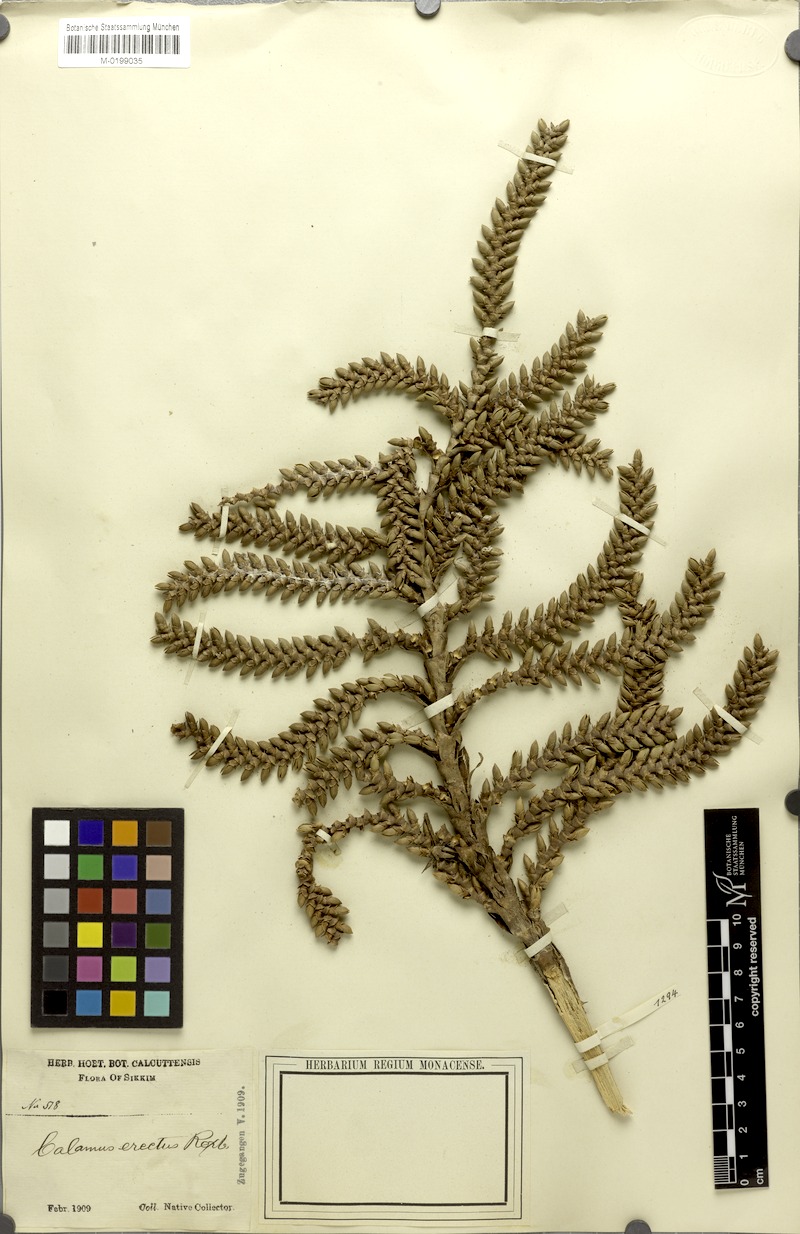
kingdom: Plantae
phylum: Tracheophyta
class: Liliopsida
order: Arecales
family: Arecaceae
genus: Calamus
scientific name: Calamus erectus
